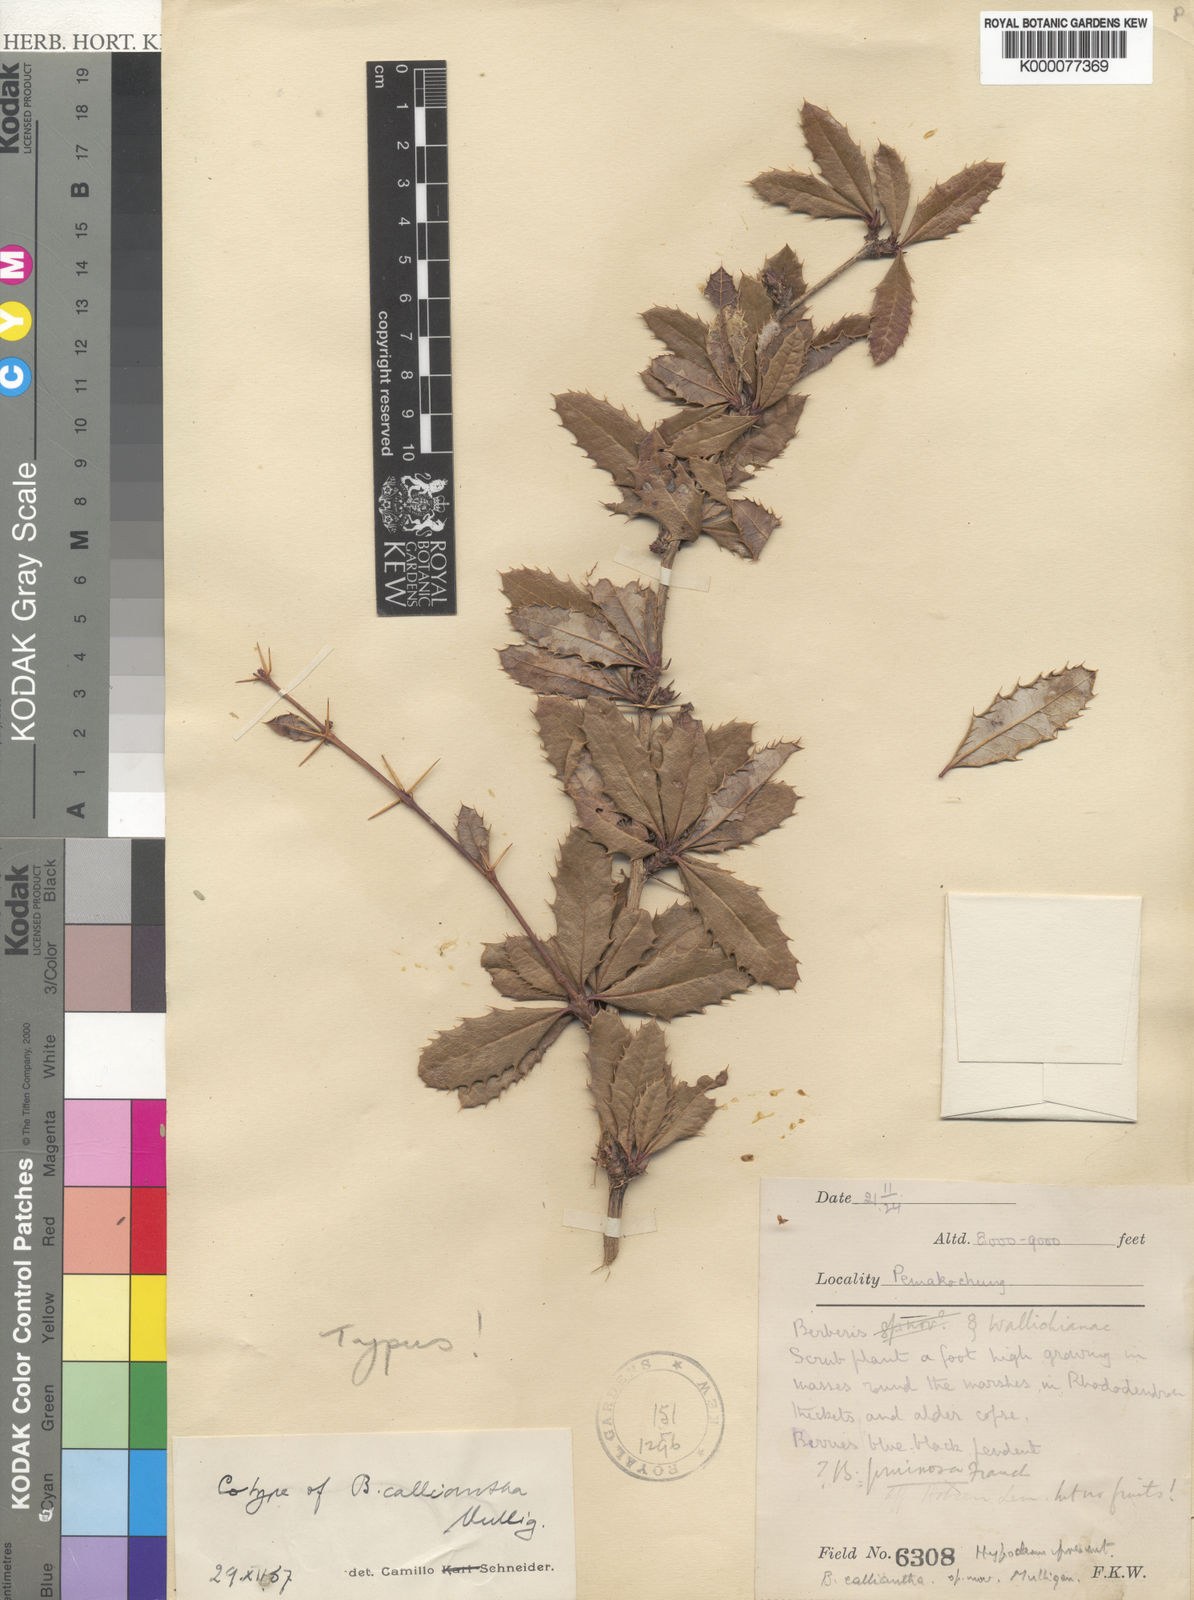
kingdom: Plantae
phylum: Tracheophyta
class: Magnoliopsida
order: Ranunculales
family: Berberidaceae
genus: Berberis
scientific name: Berberis calliantha
